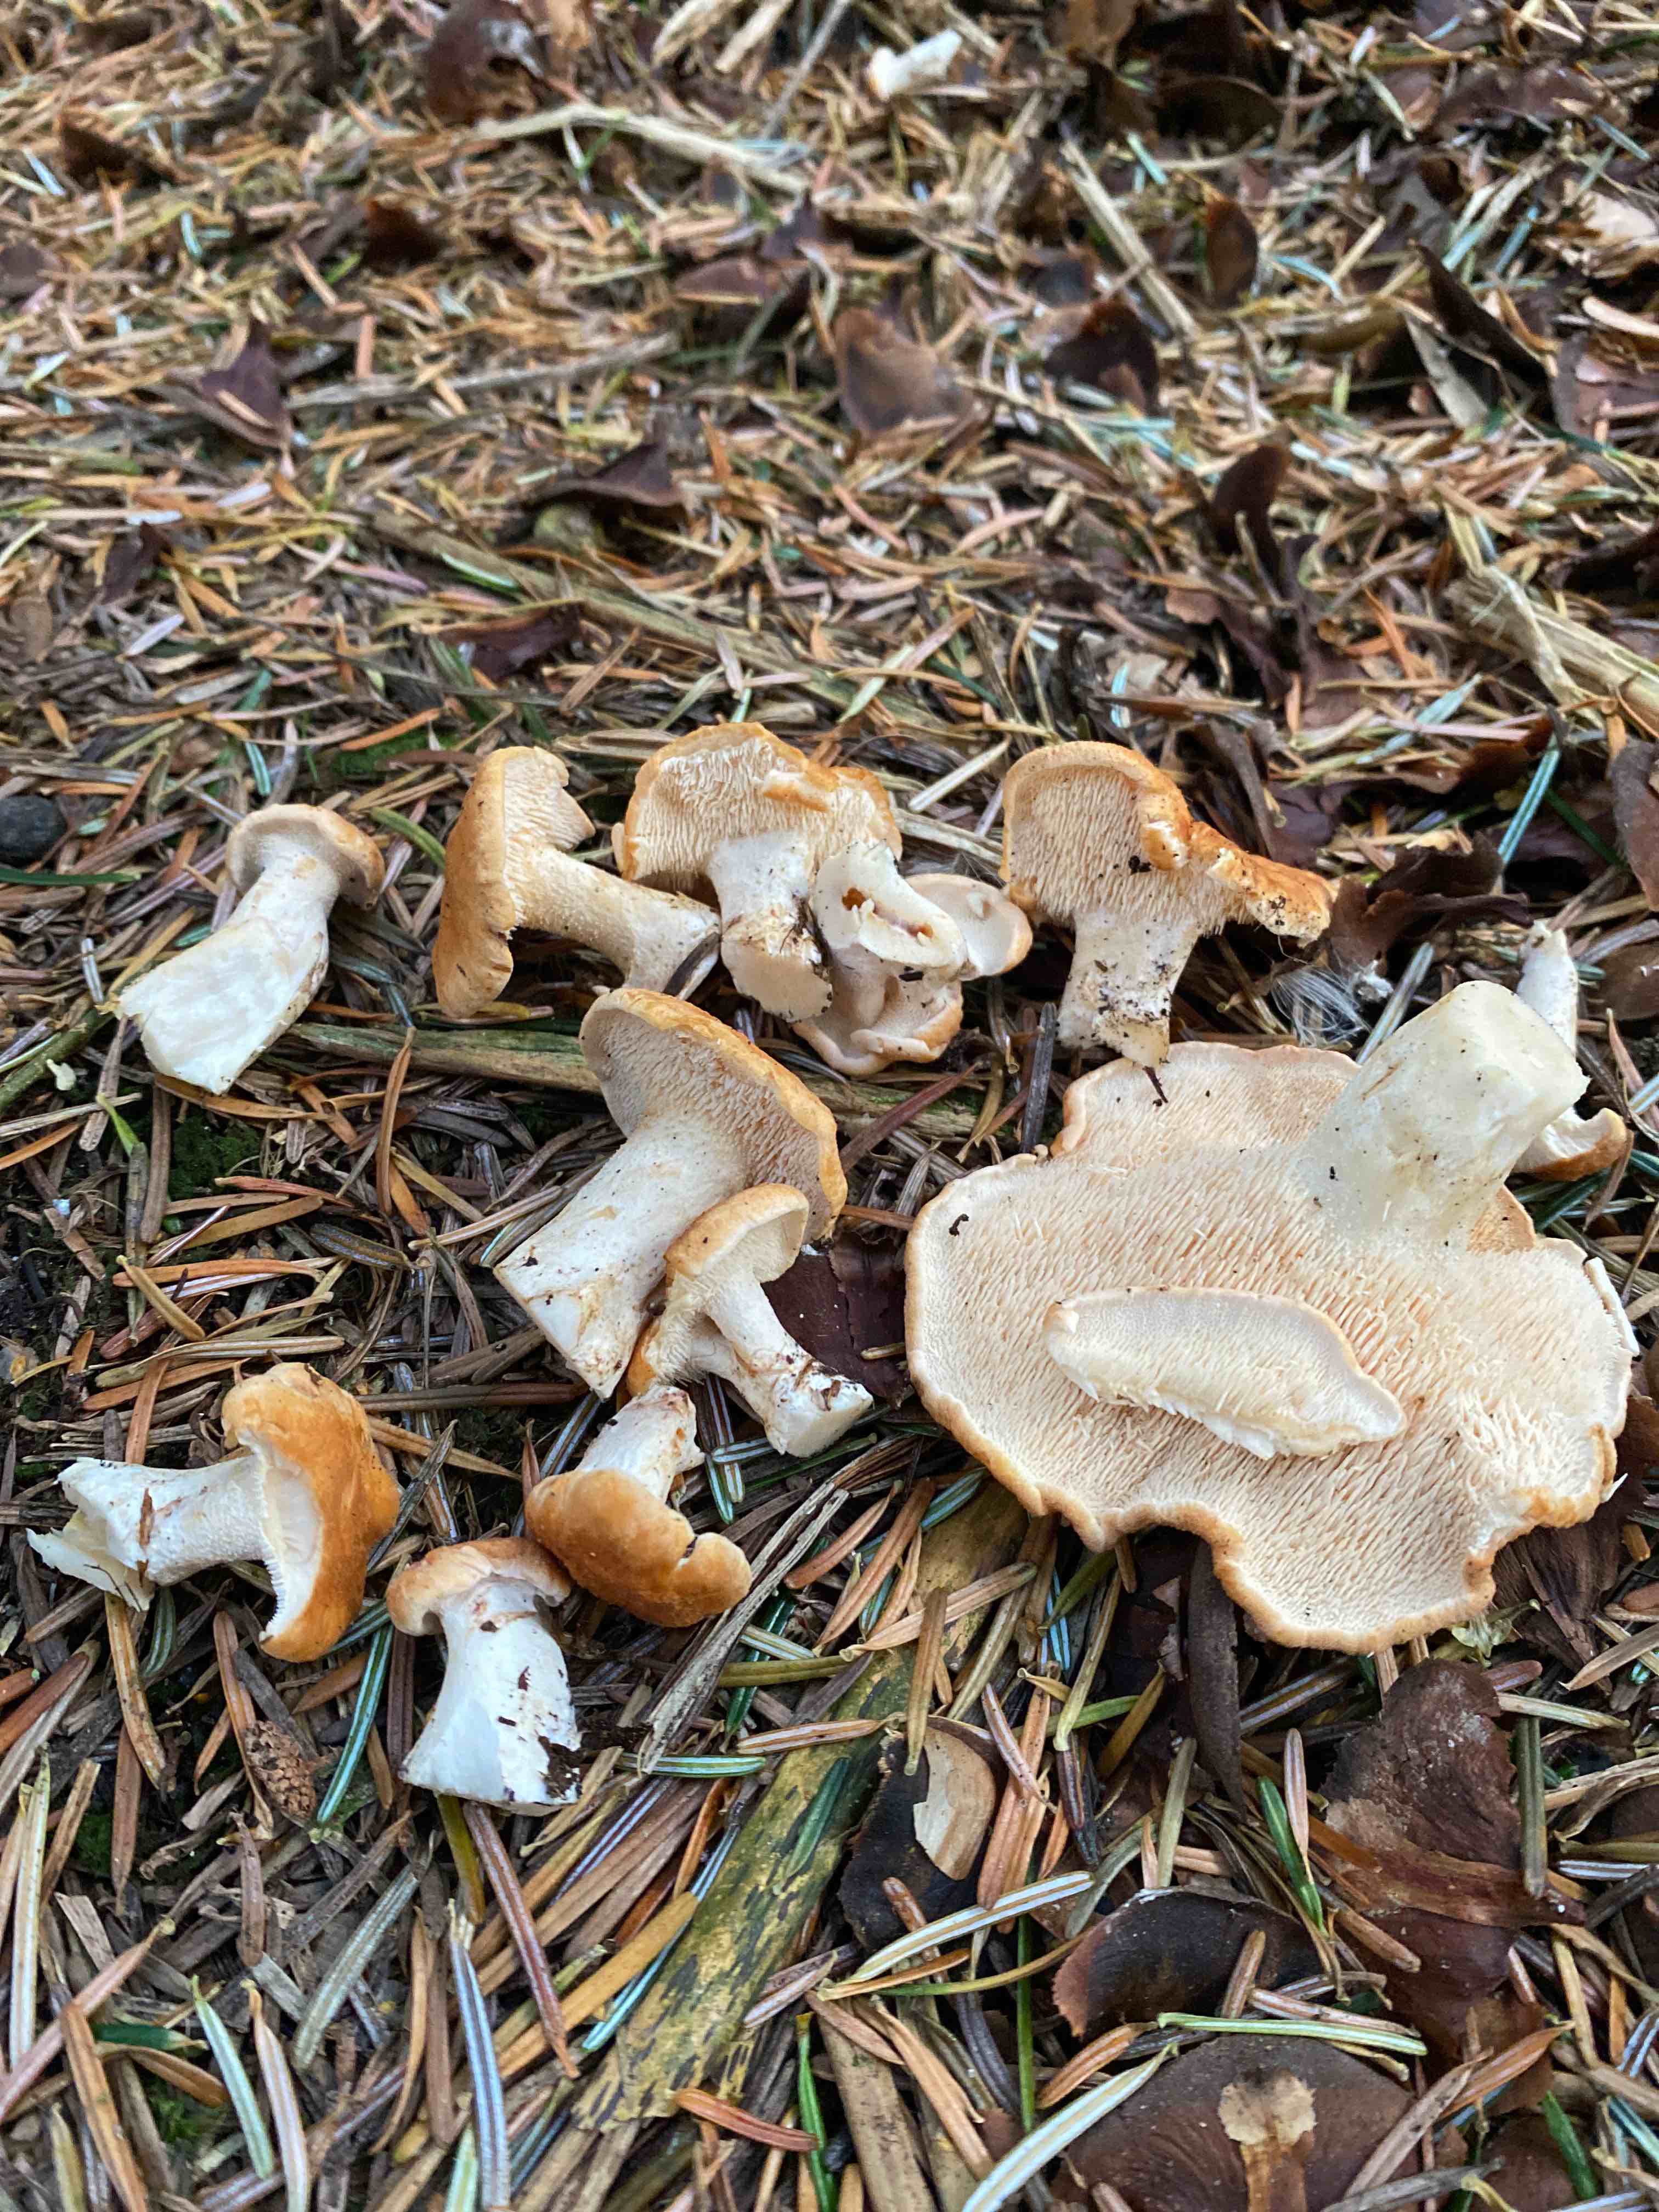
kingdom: Fungi
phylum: Basidiomycota
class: Agaricomycetes
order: Cantharellales
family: Hydnaceae
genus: Hydnum
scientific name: Hydnum repandum
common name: almindelig pigsvamp
